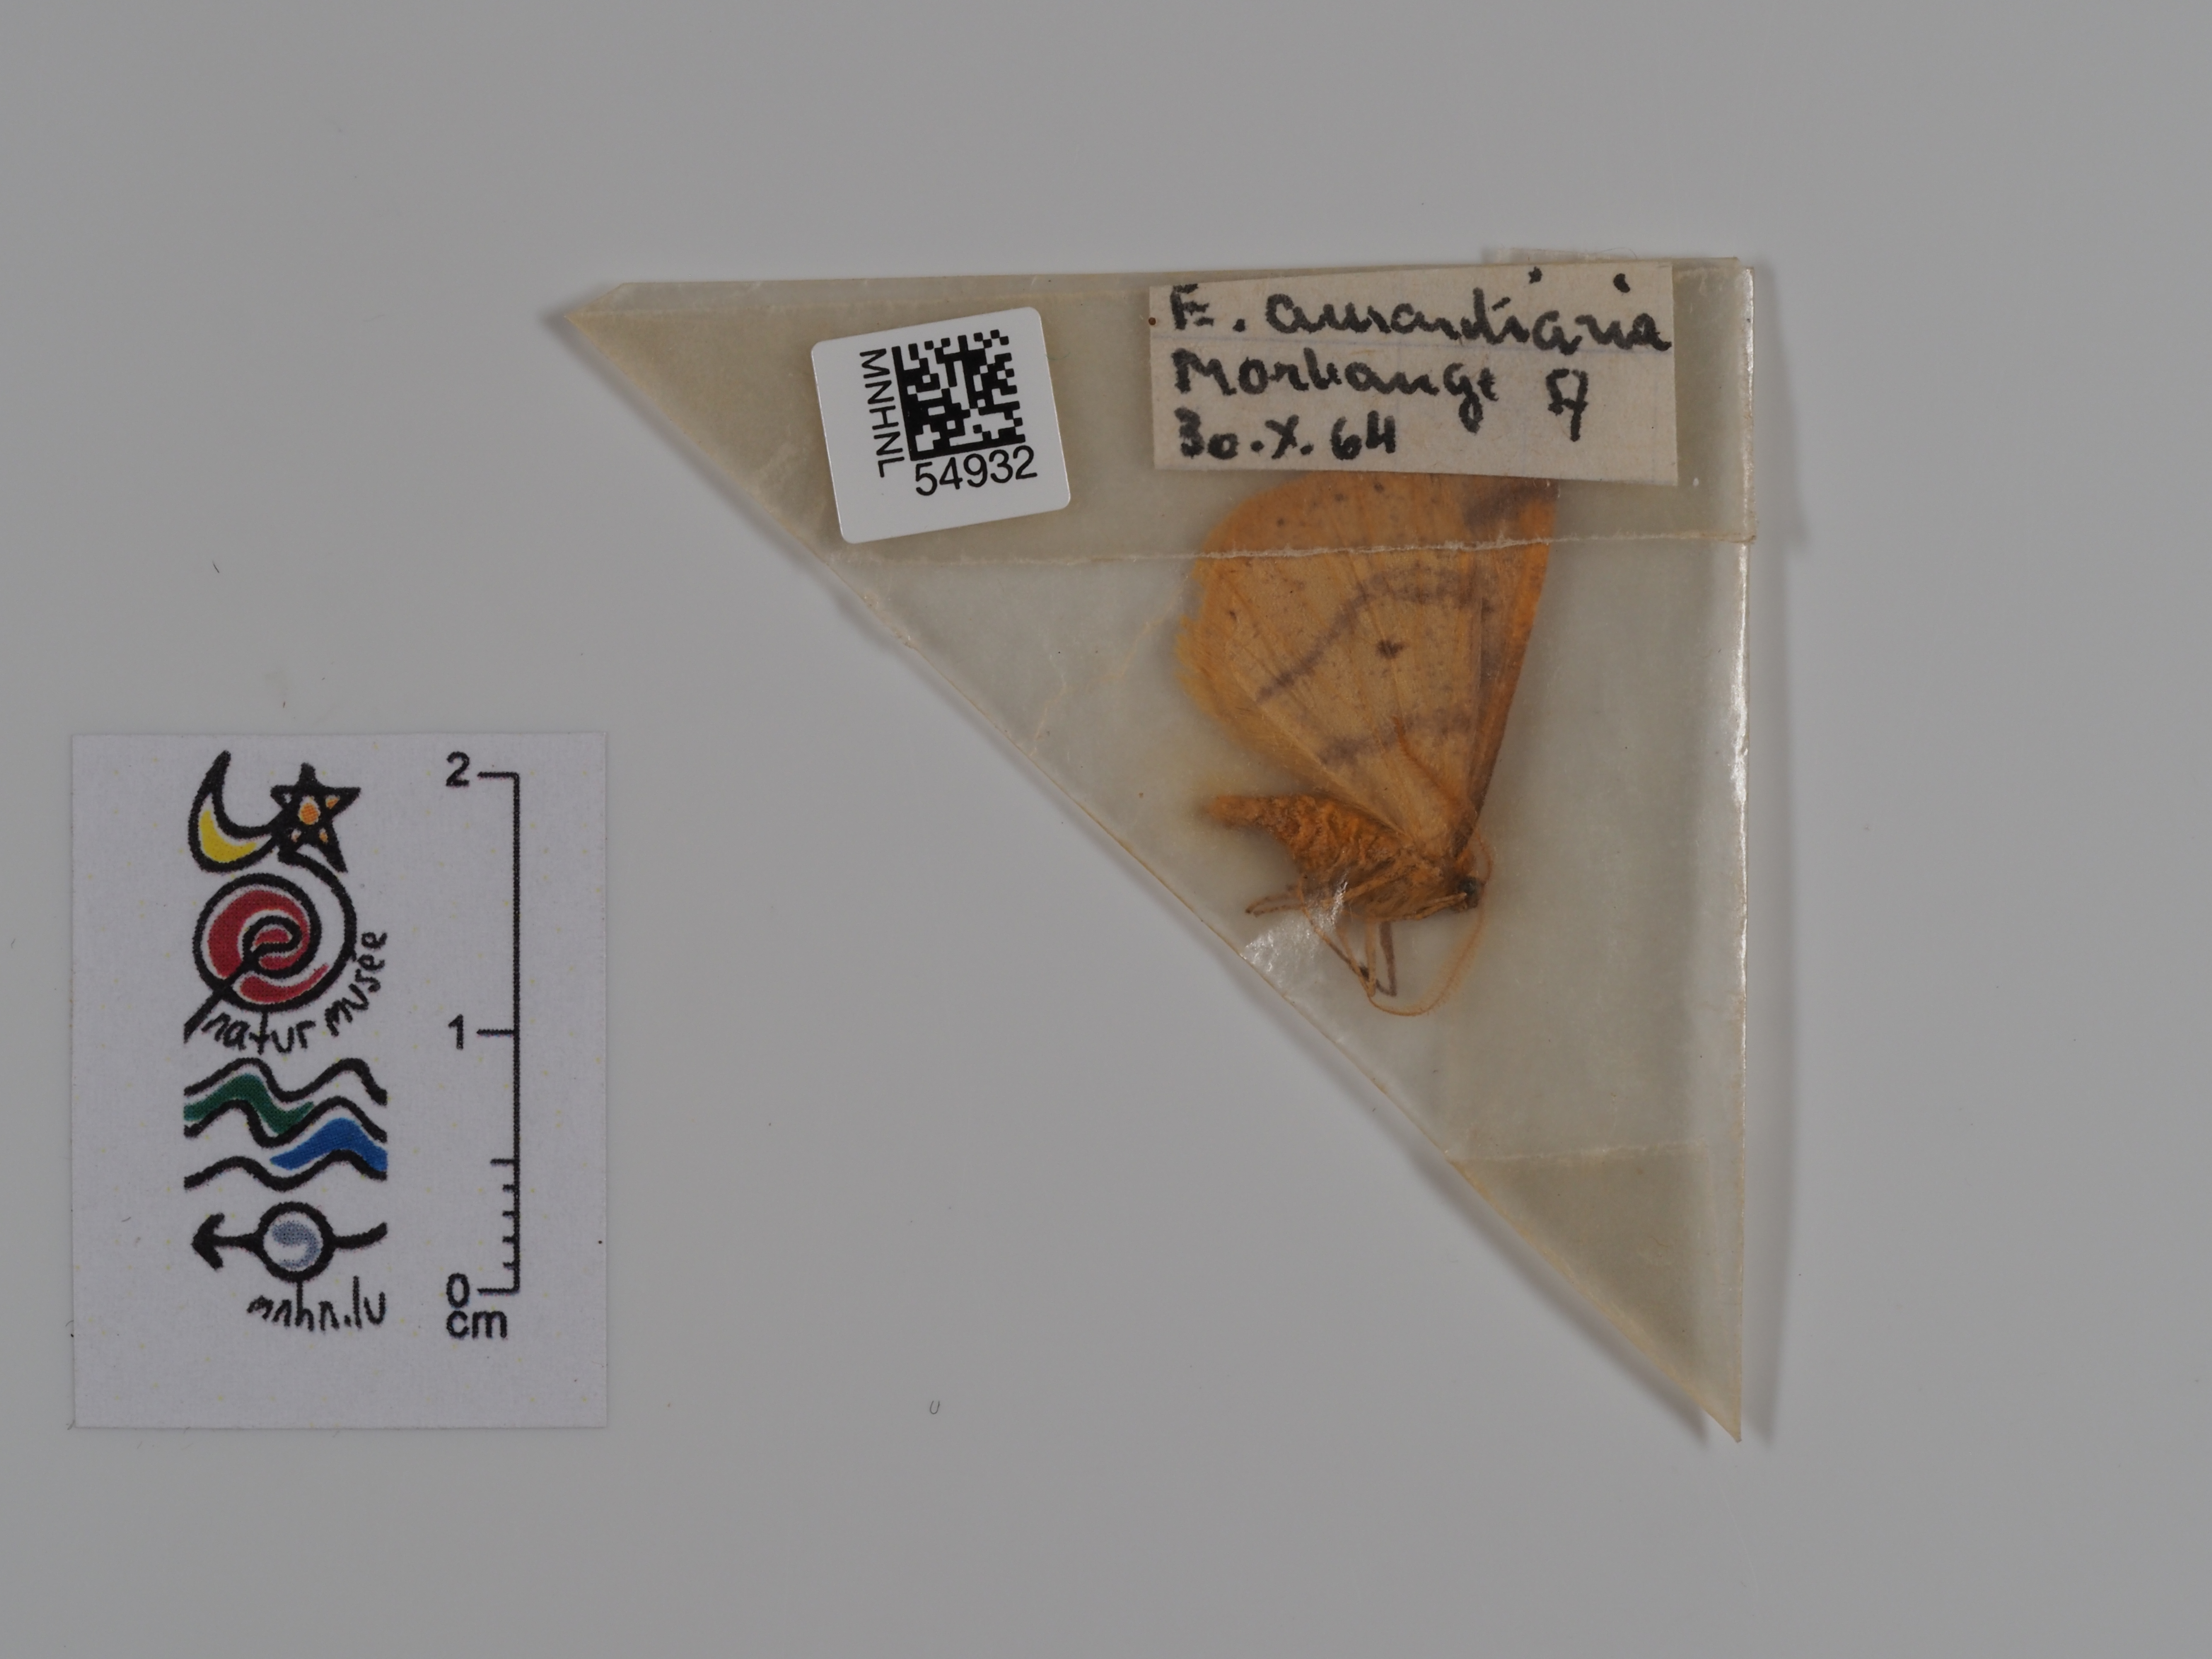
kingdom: Animalia
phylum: Arthropoda
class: Insecta
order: Lepidoptera
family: Geometridae
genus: Erannis
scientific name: Erannis
